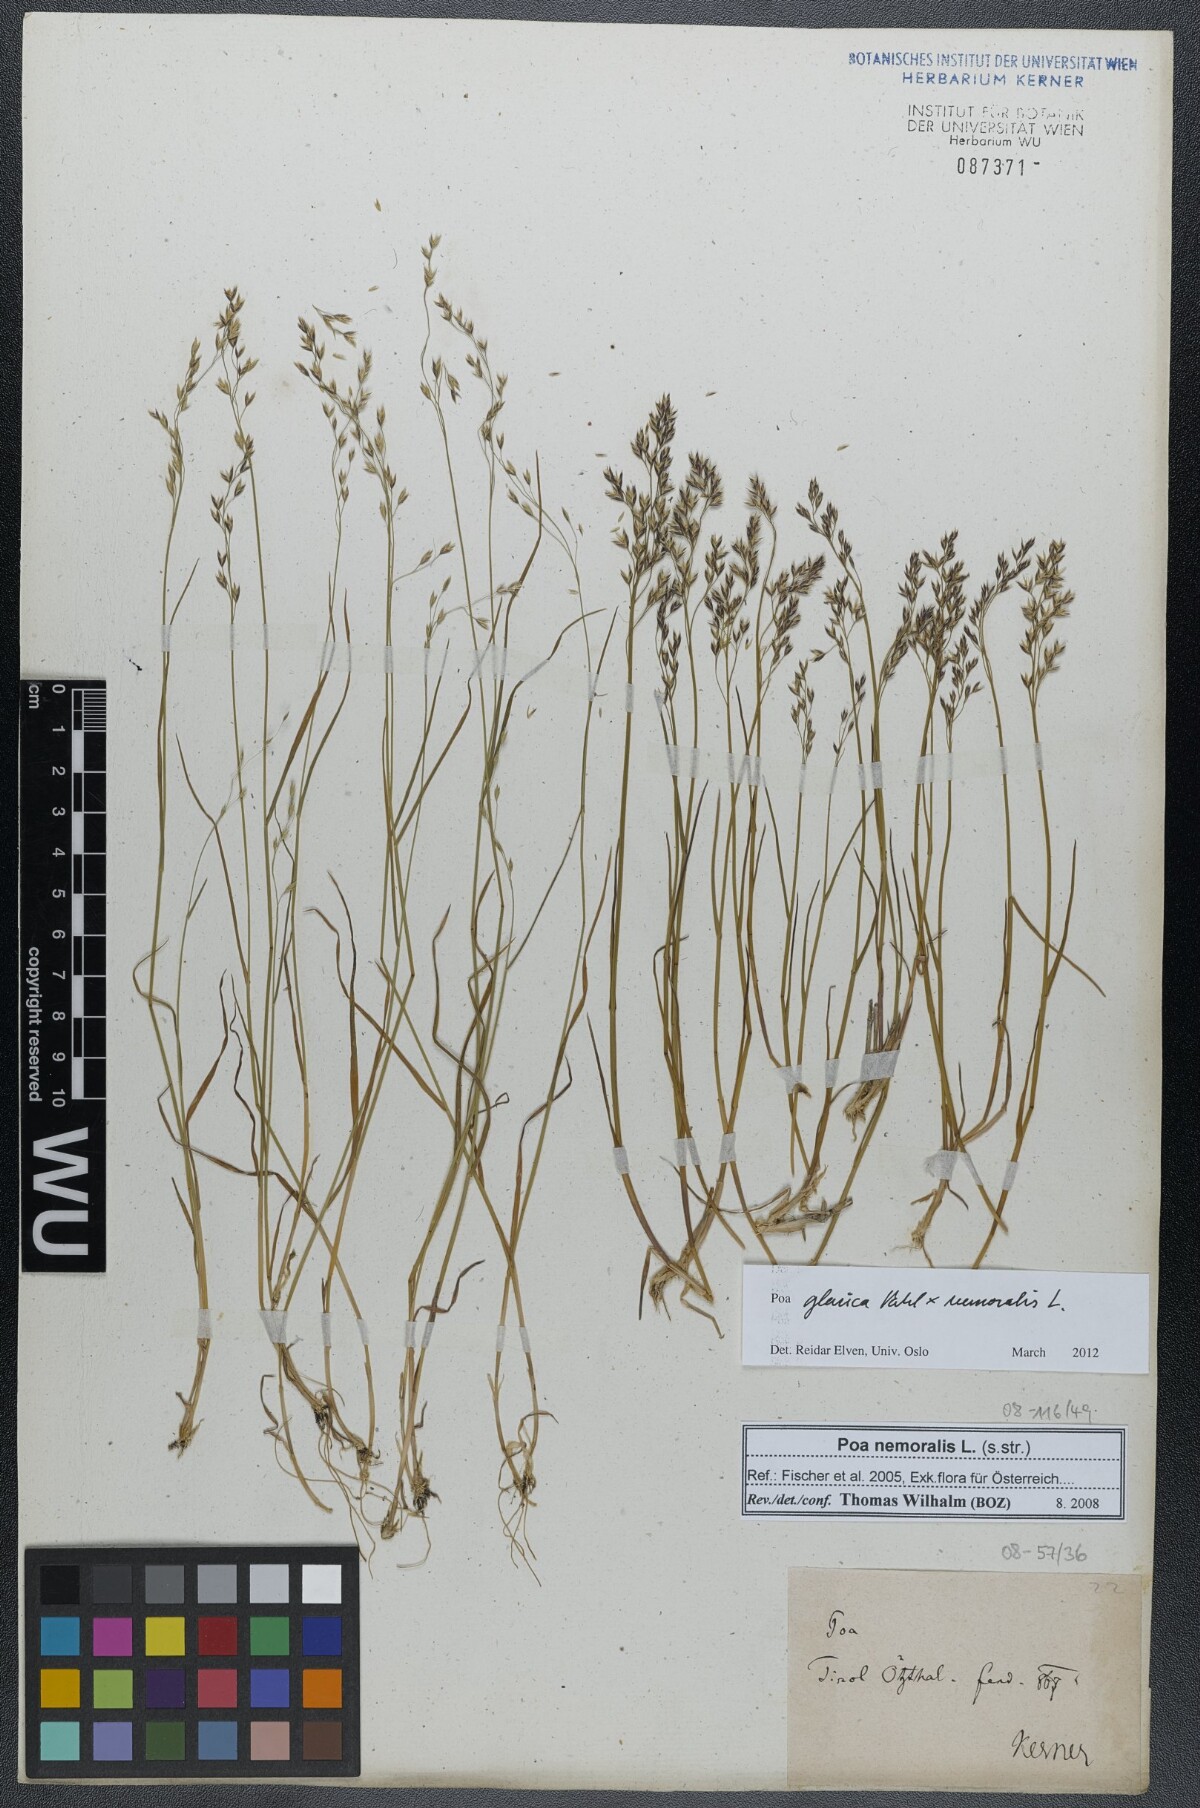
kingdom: Plantae
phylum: Tracheophyta
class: Liliopsida
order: Poales
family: Poaceae
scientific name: Poaceae
